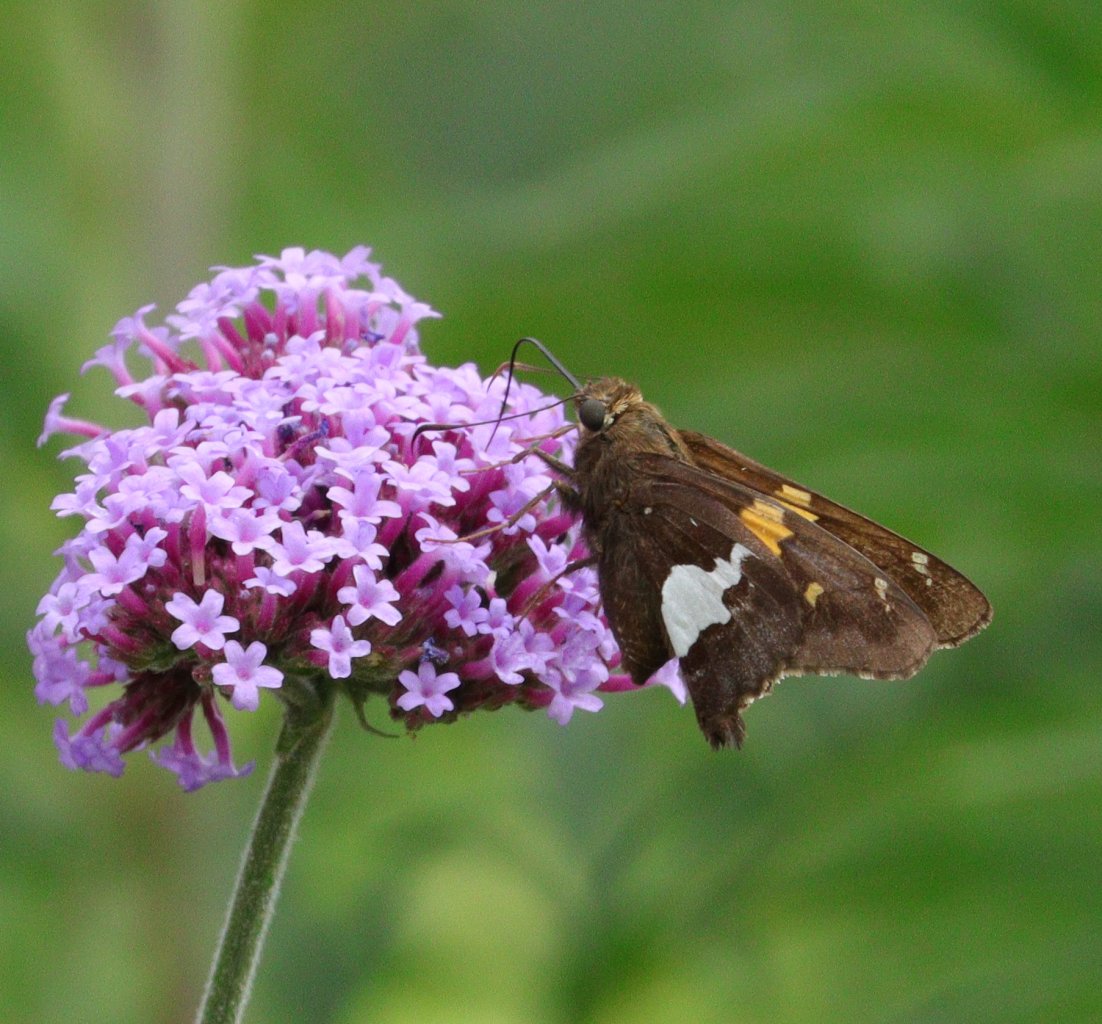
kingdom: Animalia
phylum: Arthropoda
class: Insecta
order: Lepidoptera
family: Hesperiidae
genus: Epargyreus
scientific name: Epargyreus clarus
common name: Silver-spotted Skipper
